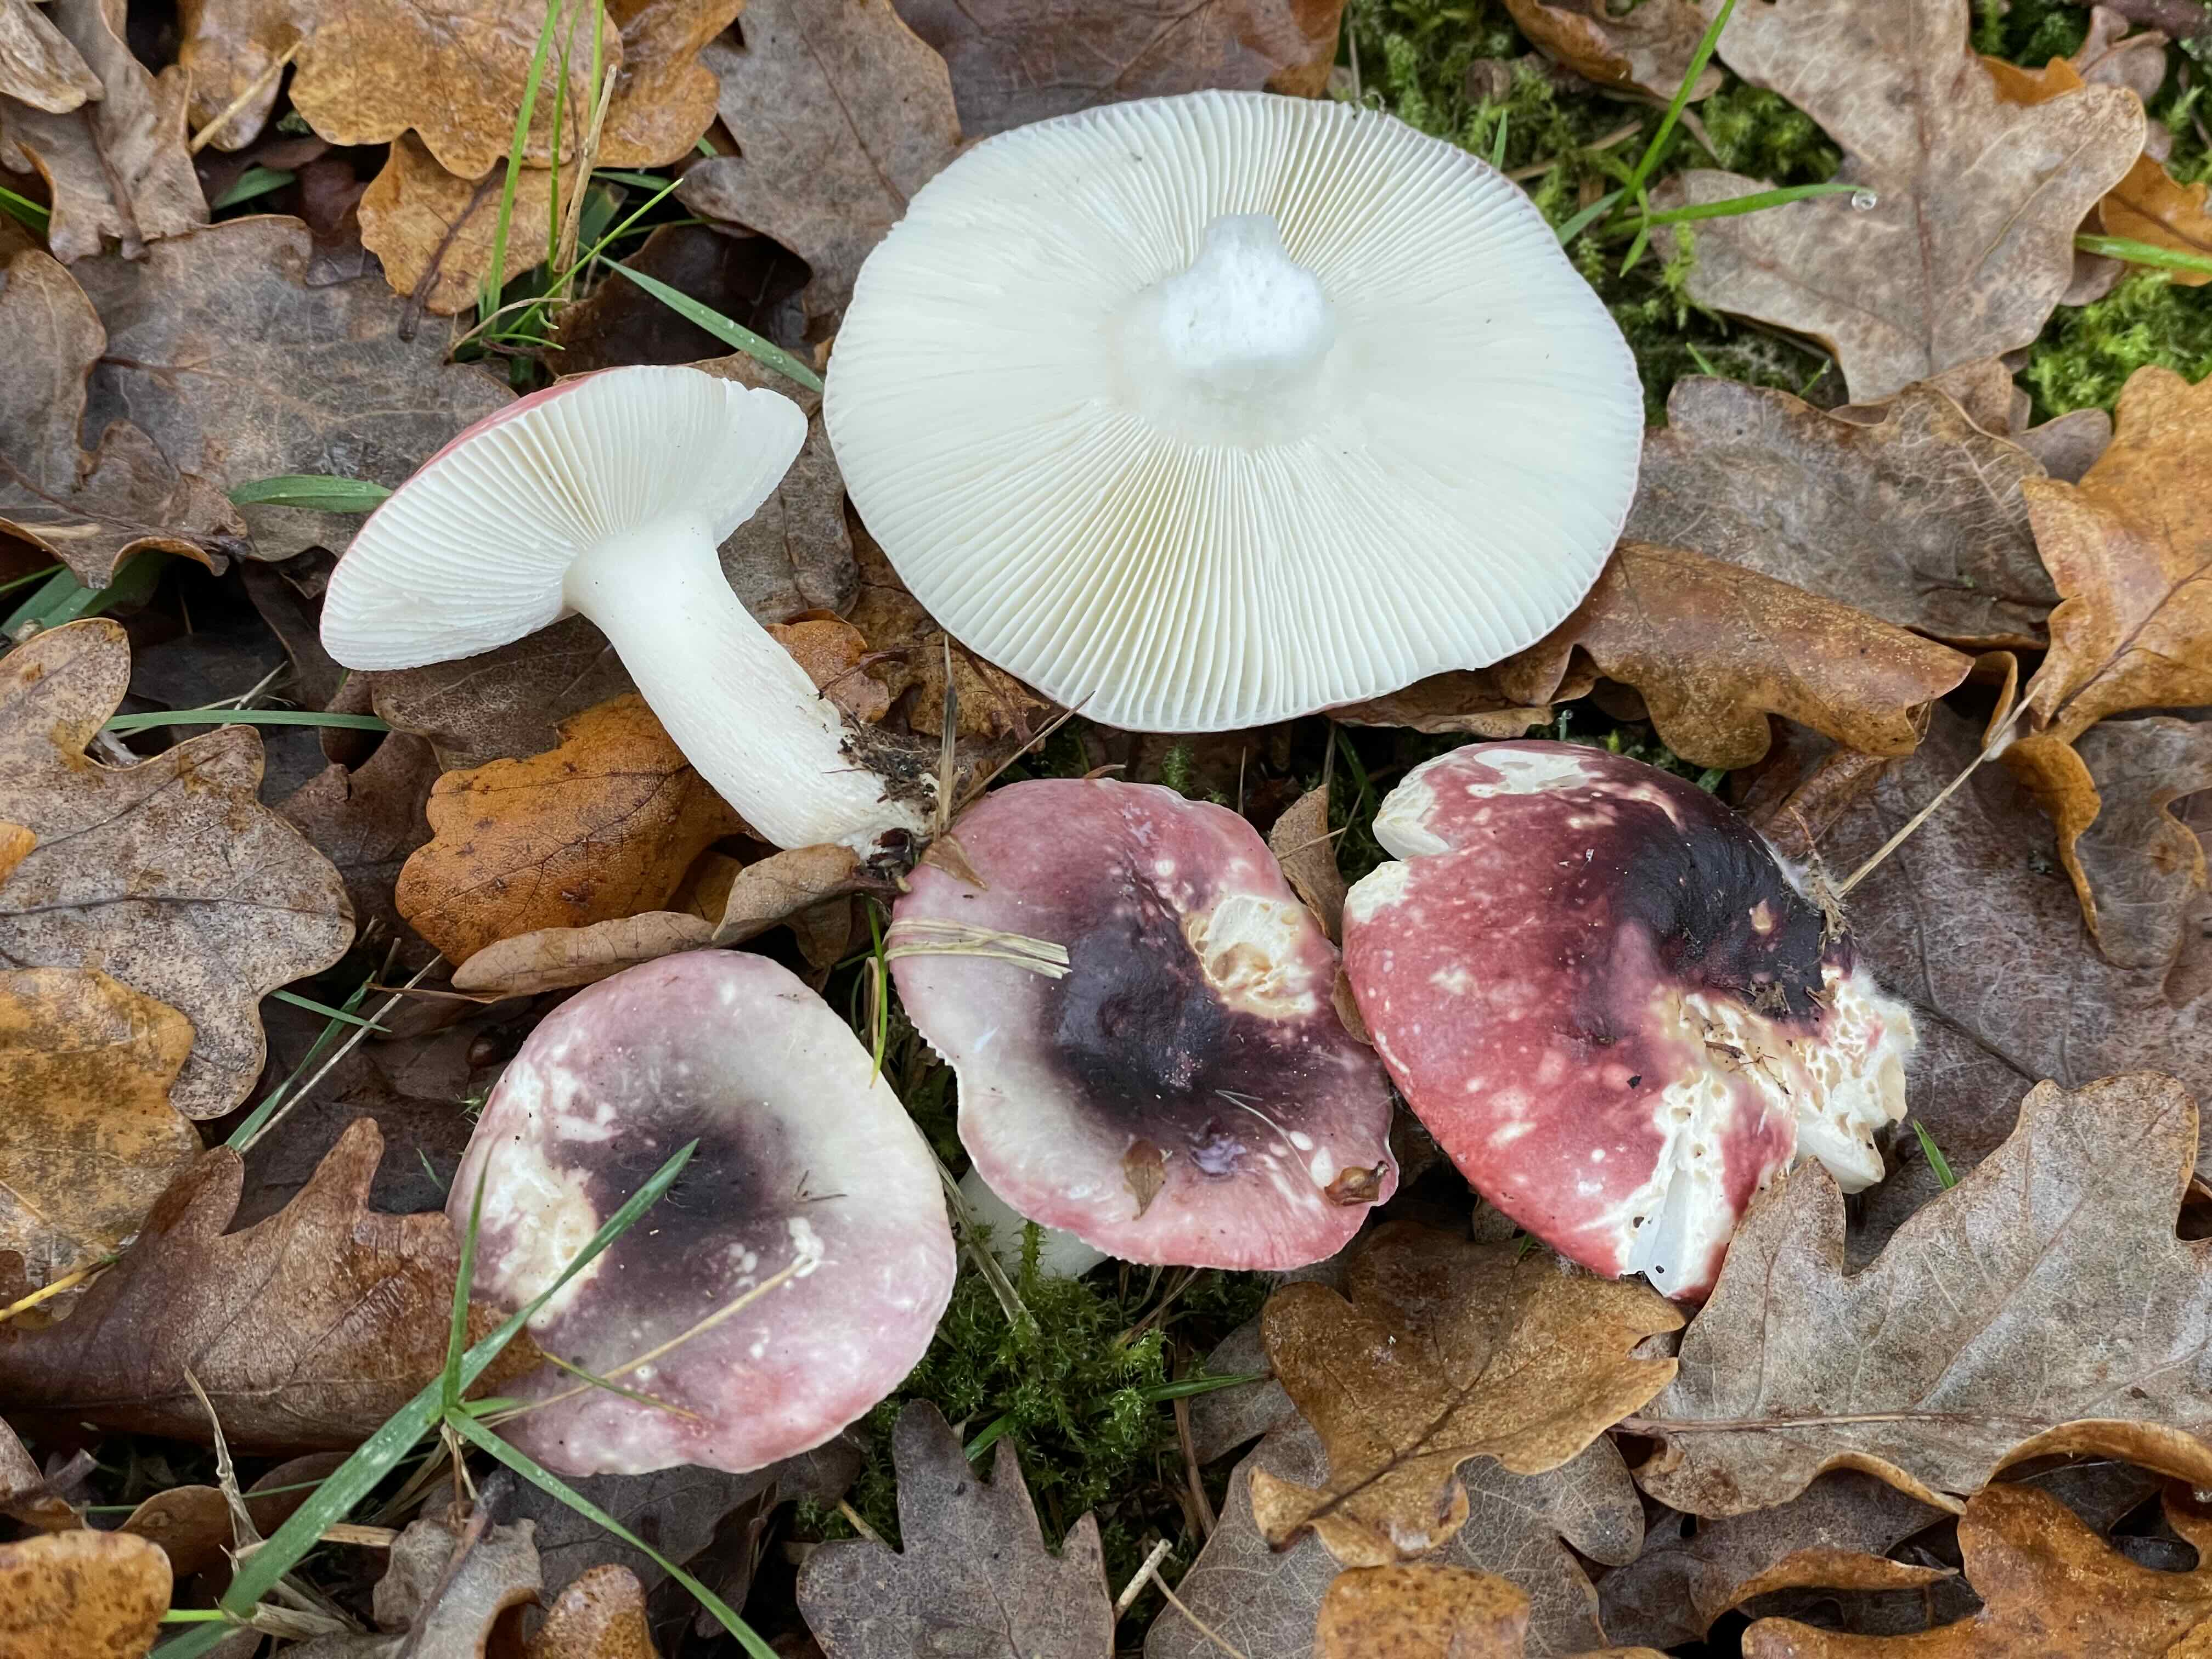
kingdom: Fungi
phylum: Basidiomycota
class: Agaricomycetes
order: Russulales
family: Russulaceae
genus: Russula
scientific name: Russula fragilis
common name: savbladet skørhat
